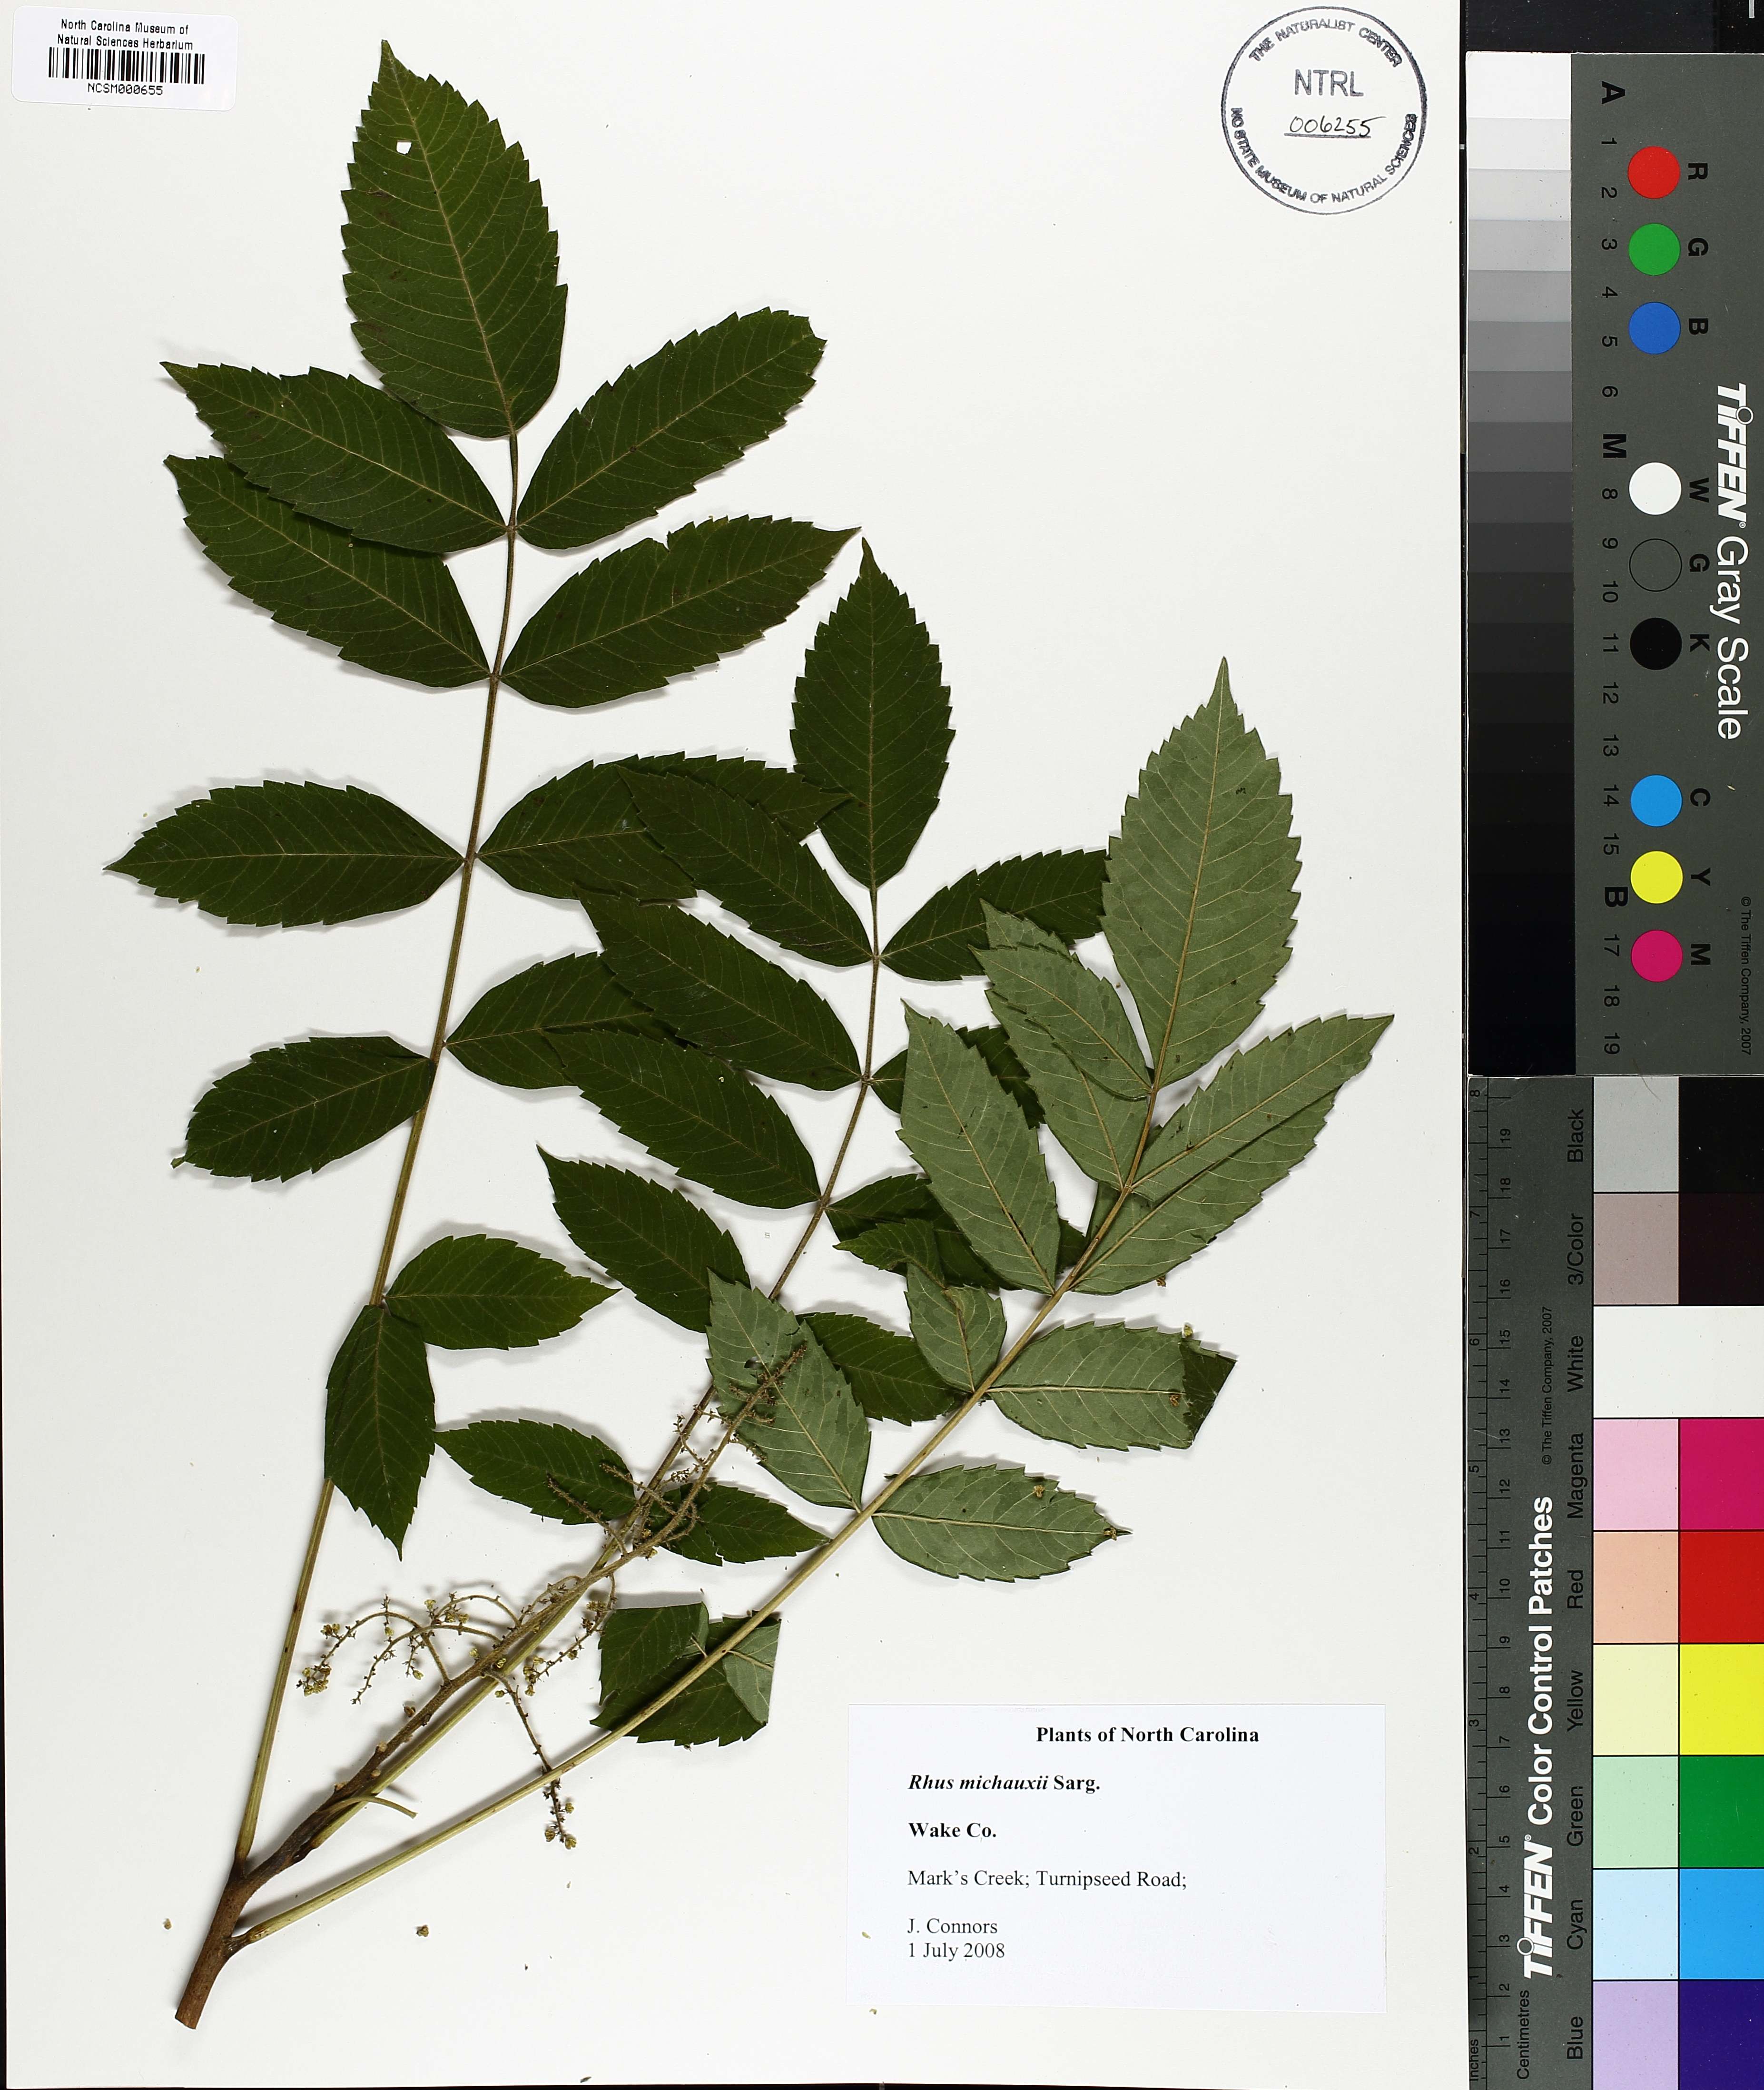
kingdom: Plantae
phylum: Tracheophyta
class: Magnoliopsida
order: Sapindales
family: Anacardiaceae
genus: Rhus
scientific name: Rhus michauxii
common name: Michaux's sumac
